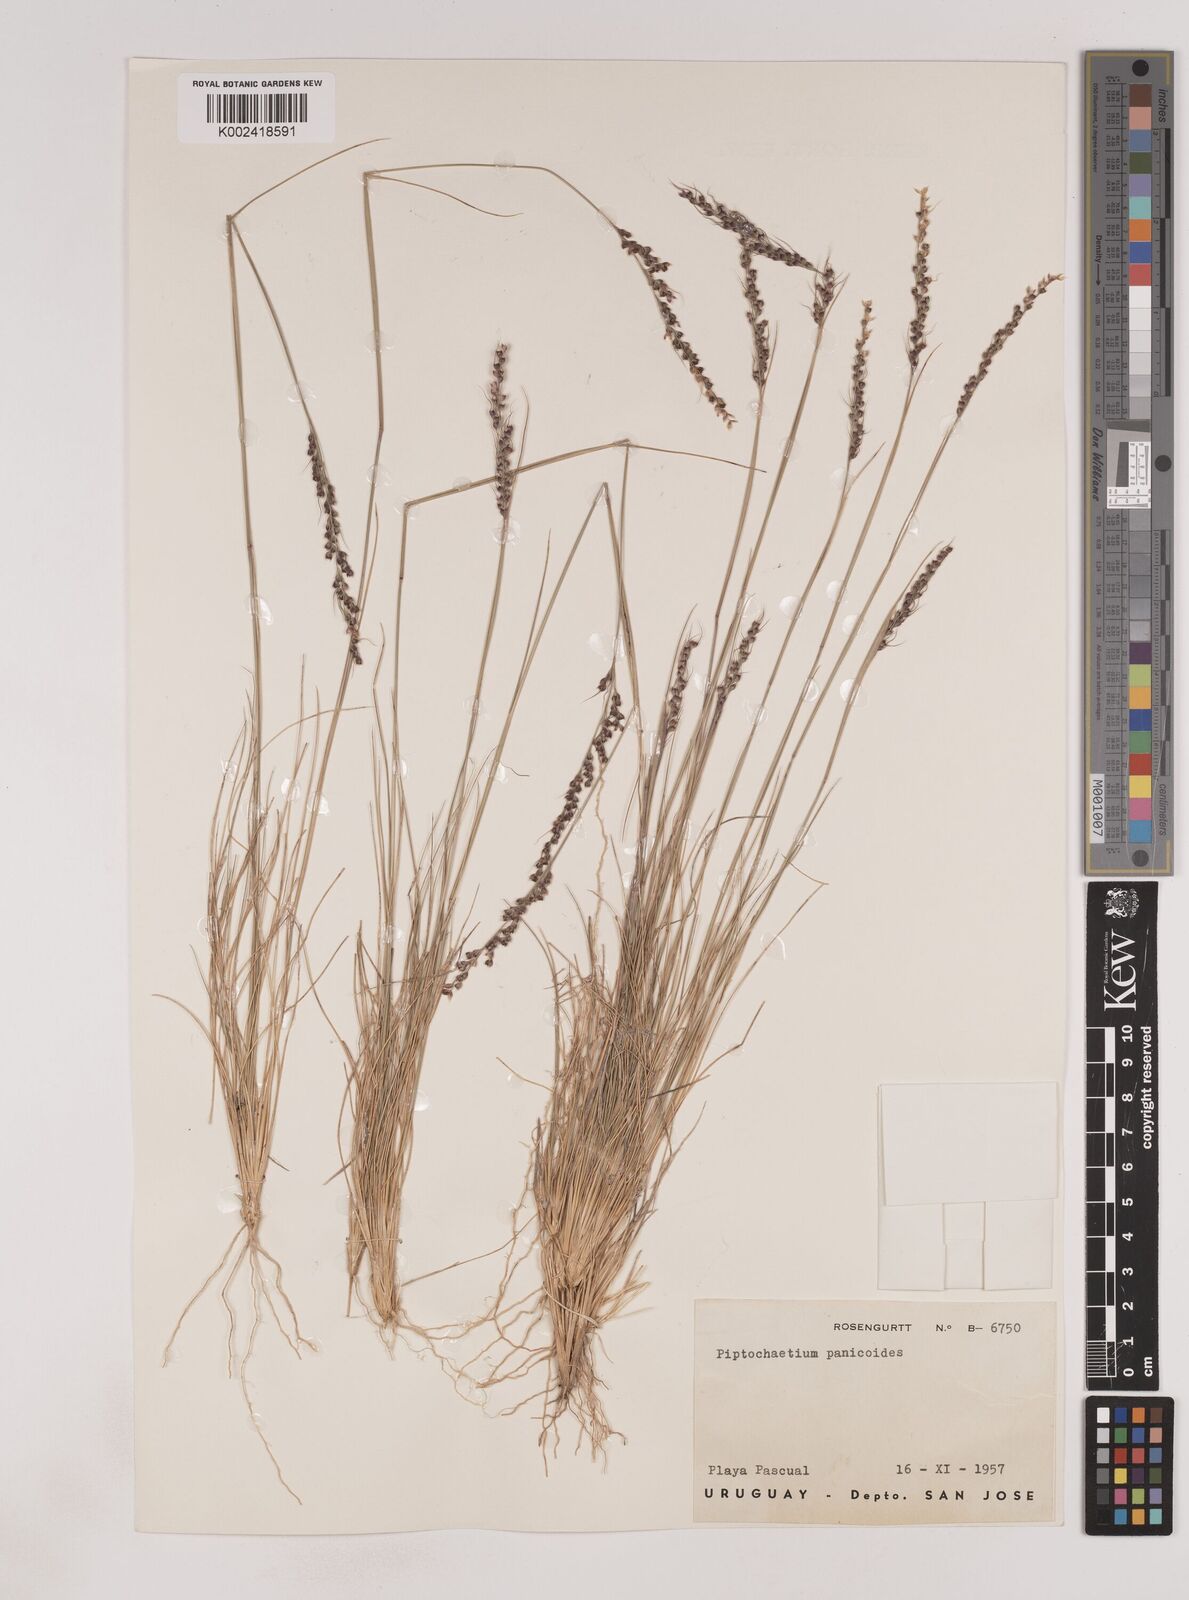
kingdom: Plantae
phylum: Tracheophyta
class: Liliopsida
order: Poales
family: Poaceae
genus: Piptochaetium
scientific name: Piptochaetium panicoides
